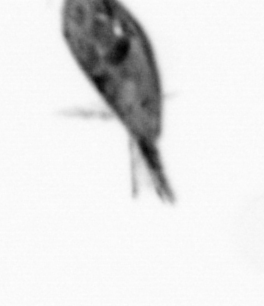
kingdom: Animalia
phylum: Arthropoda
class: Maxillopoda
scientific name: Maxillopoda
